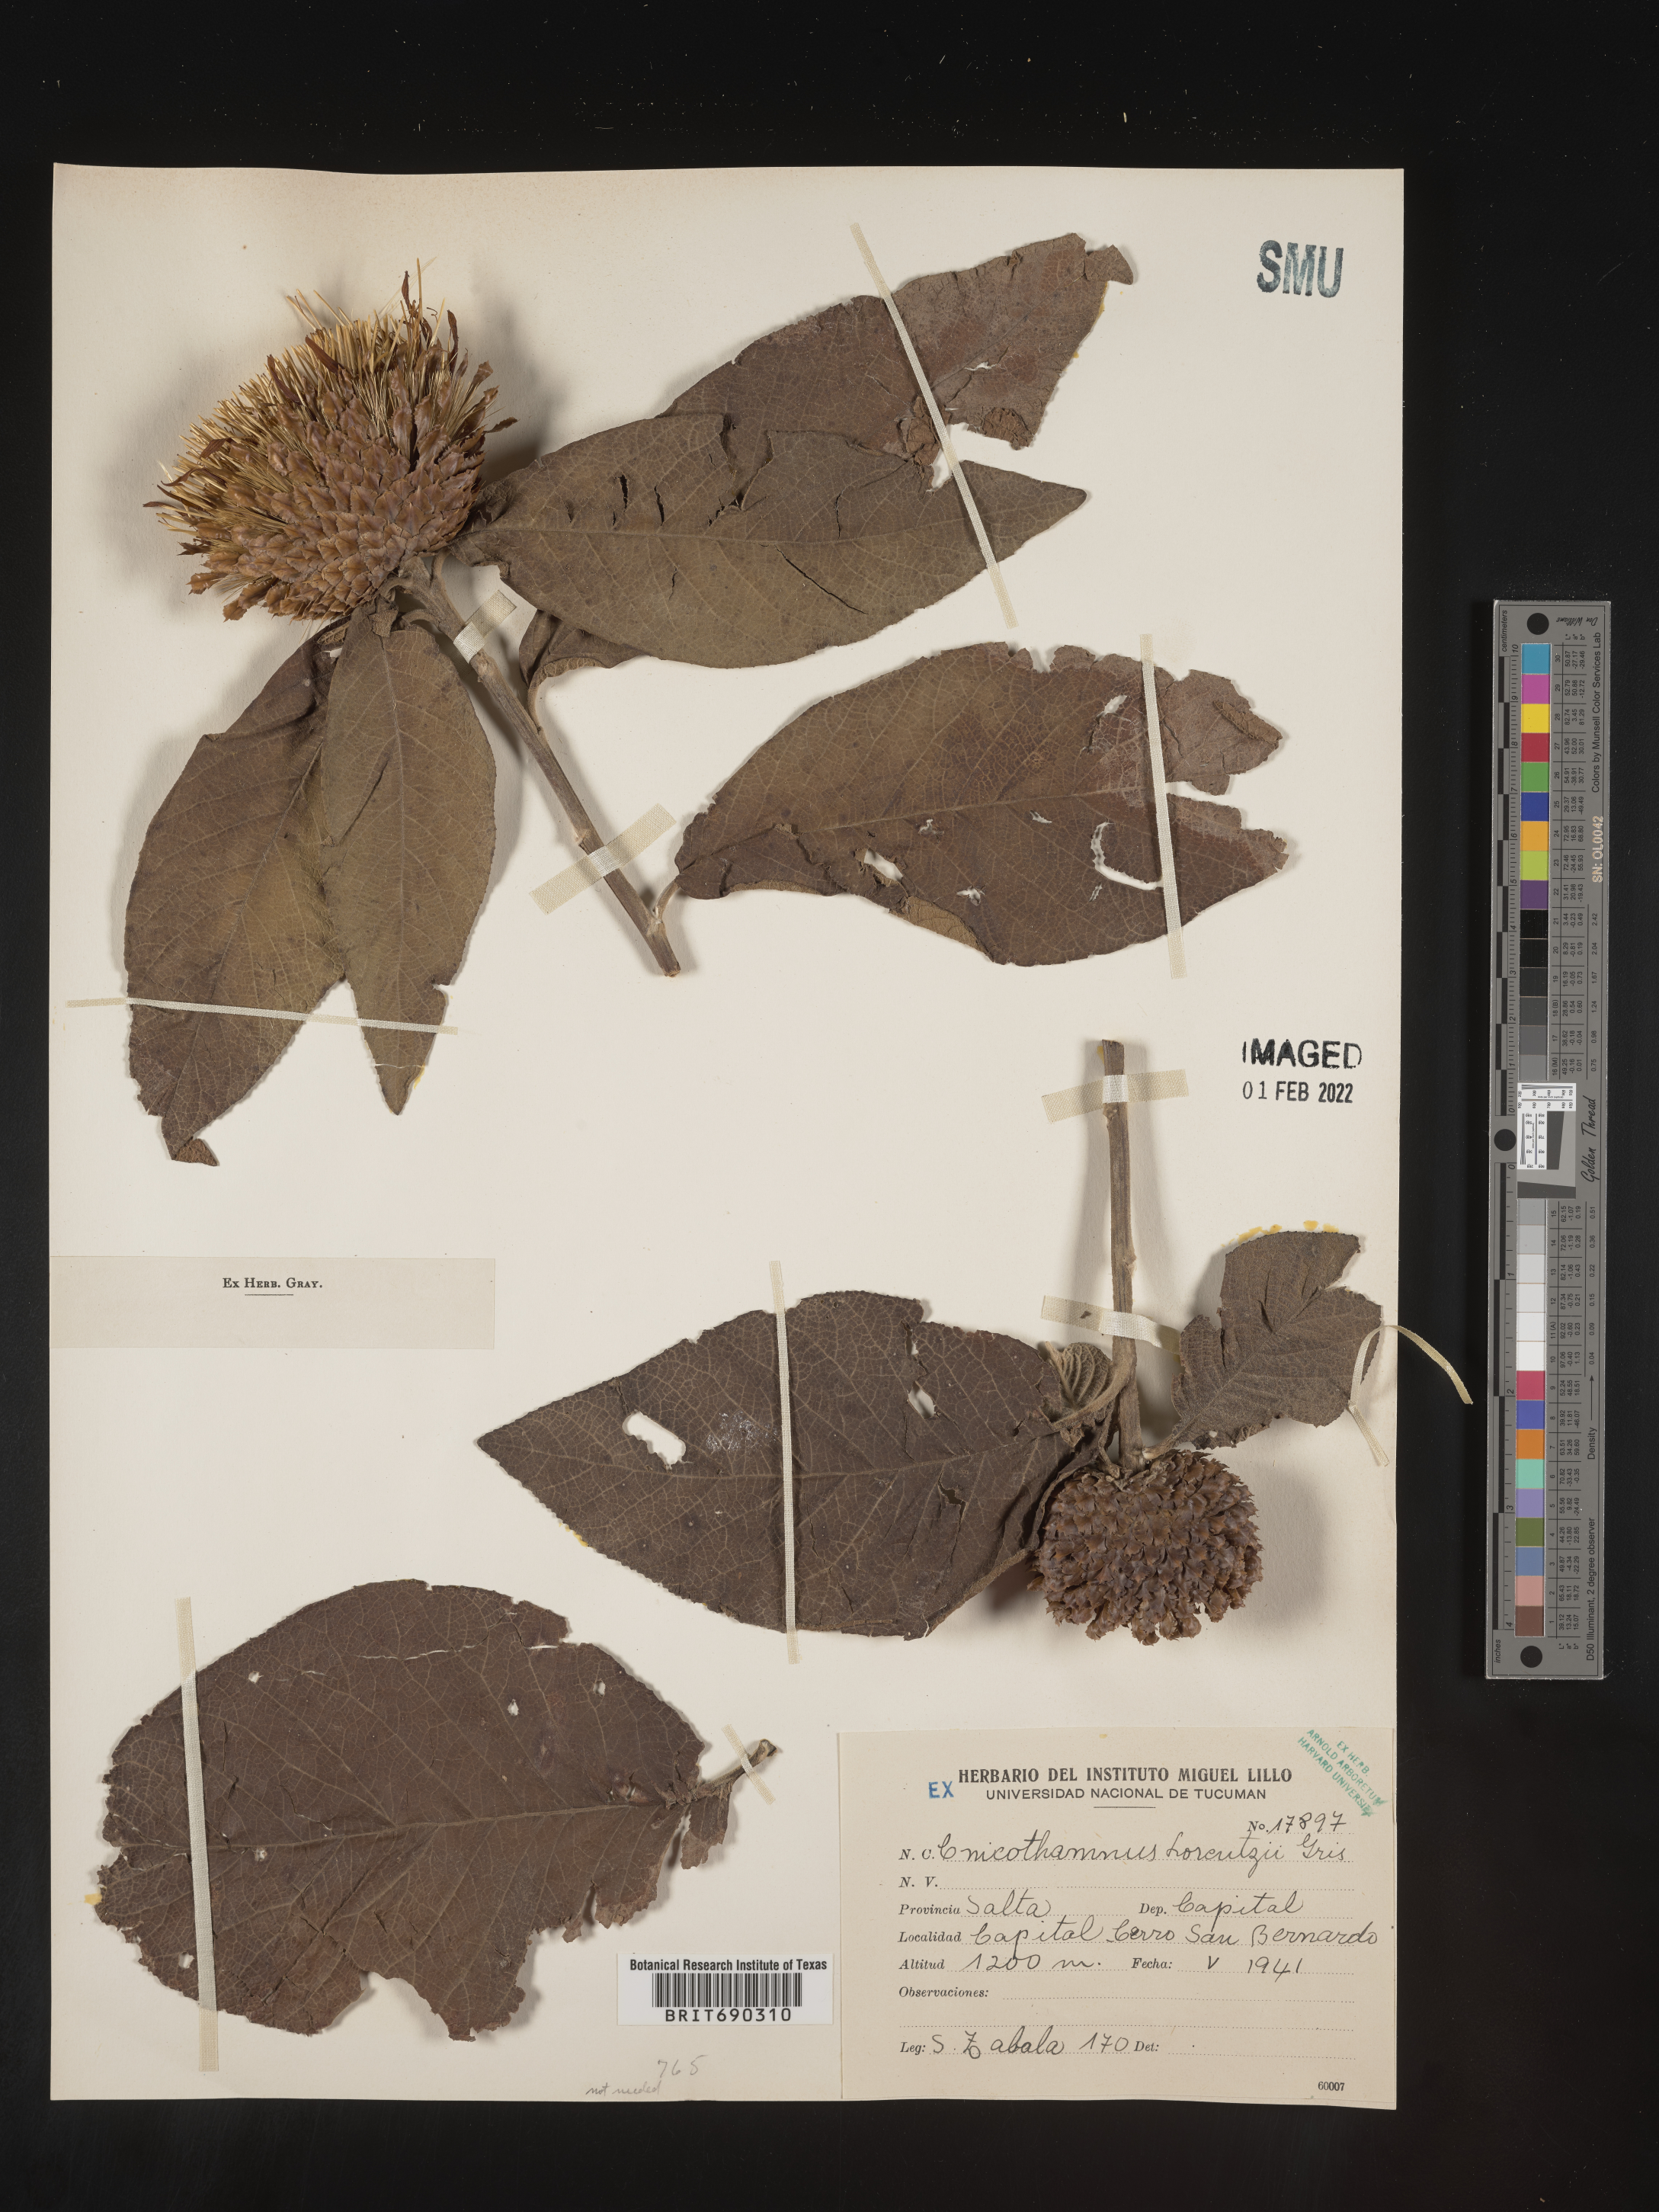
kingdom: Plantae
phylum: Tracheophyta
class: Magnoliopsida
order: Asterales
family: Asteraceae
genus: Cnicothamnus
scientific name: Cnicothamnus
